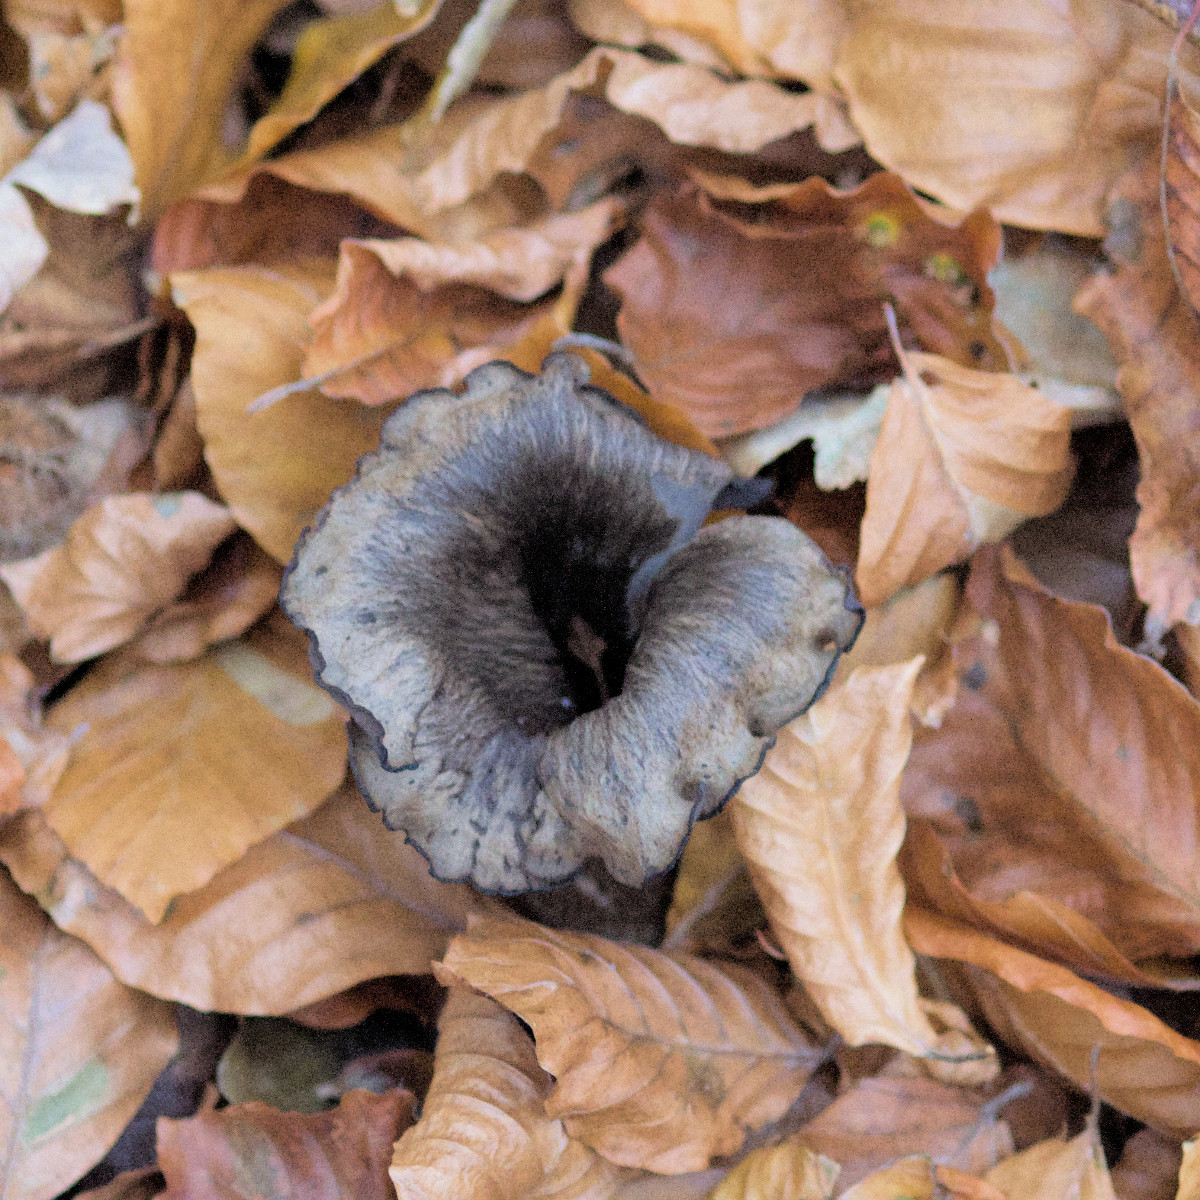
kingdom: Fungi
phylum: Basidiomycota
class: Agaricomycetes
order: Cantharellales
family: Hydnaceae
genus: Craterellus
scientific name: Craterellus cornucopioides
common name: trompetsvamp
